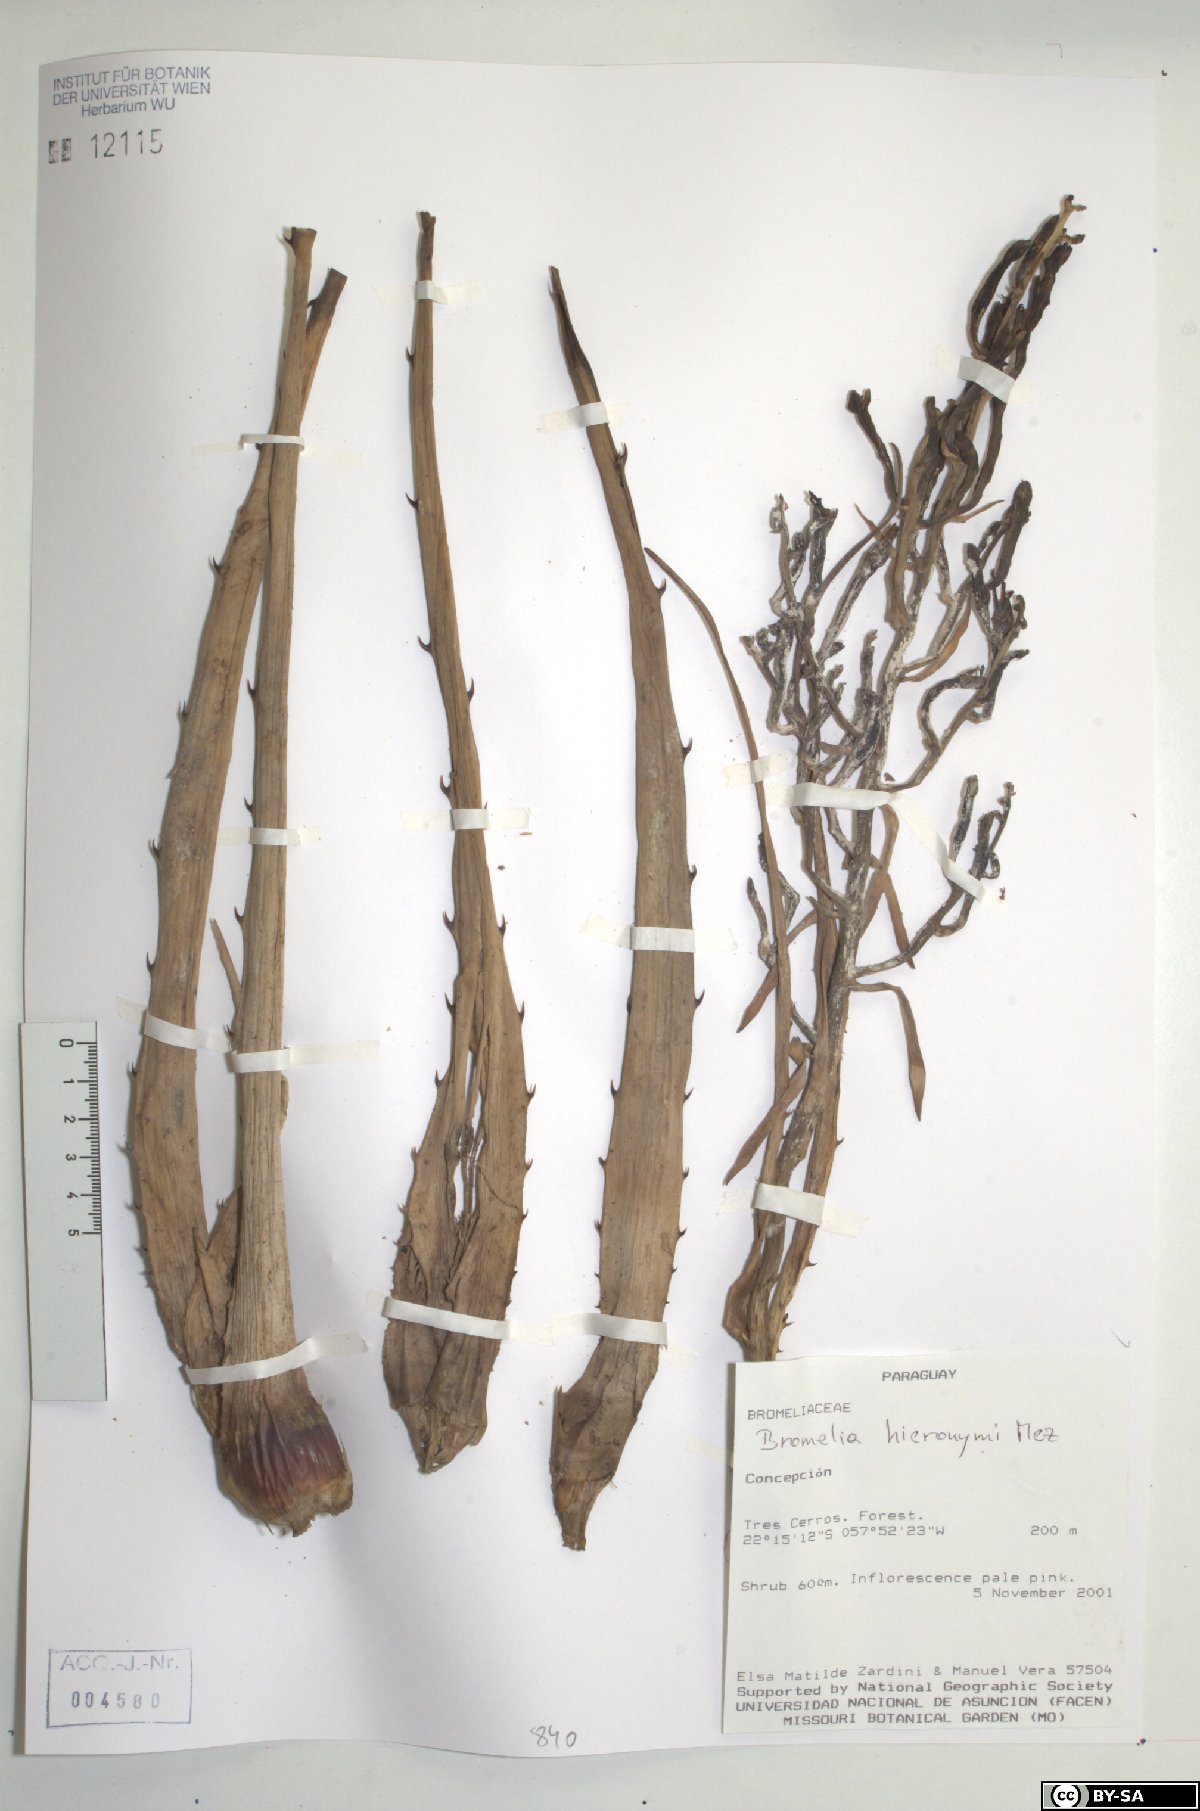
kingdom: Plantae
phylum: Tracheophyta
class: Liliopsida
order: Poales
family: Bromeliaceae
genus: Bromelia
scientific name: Bromelia hieronymi
